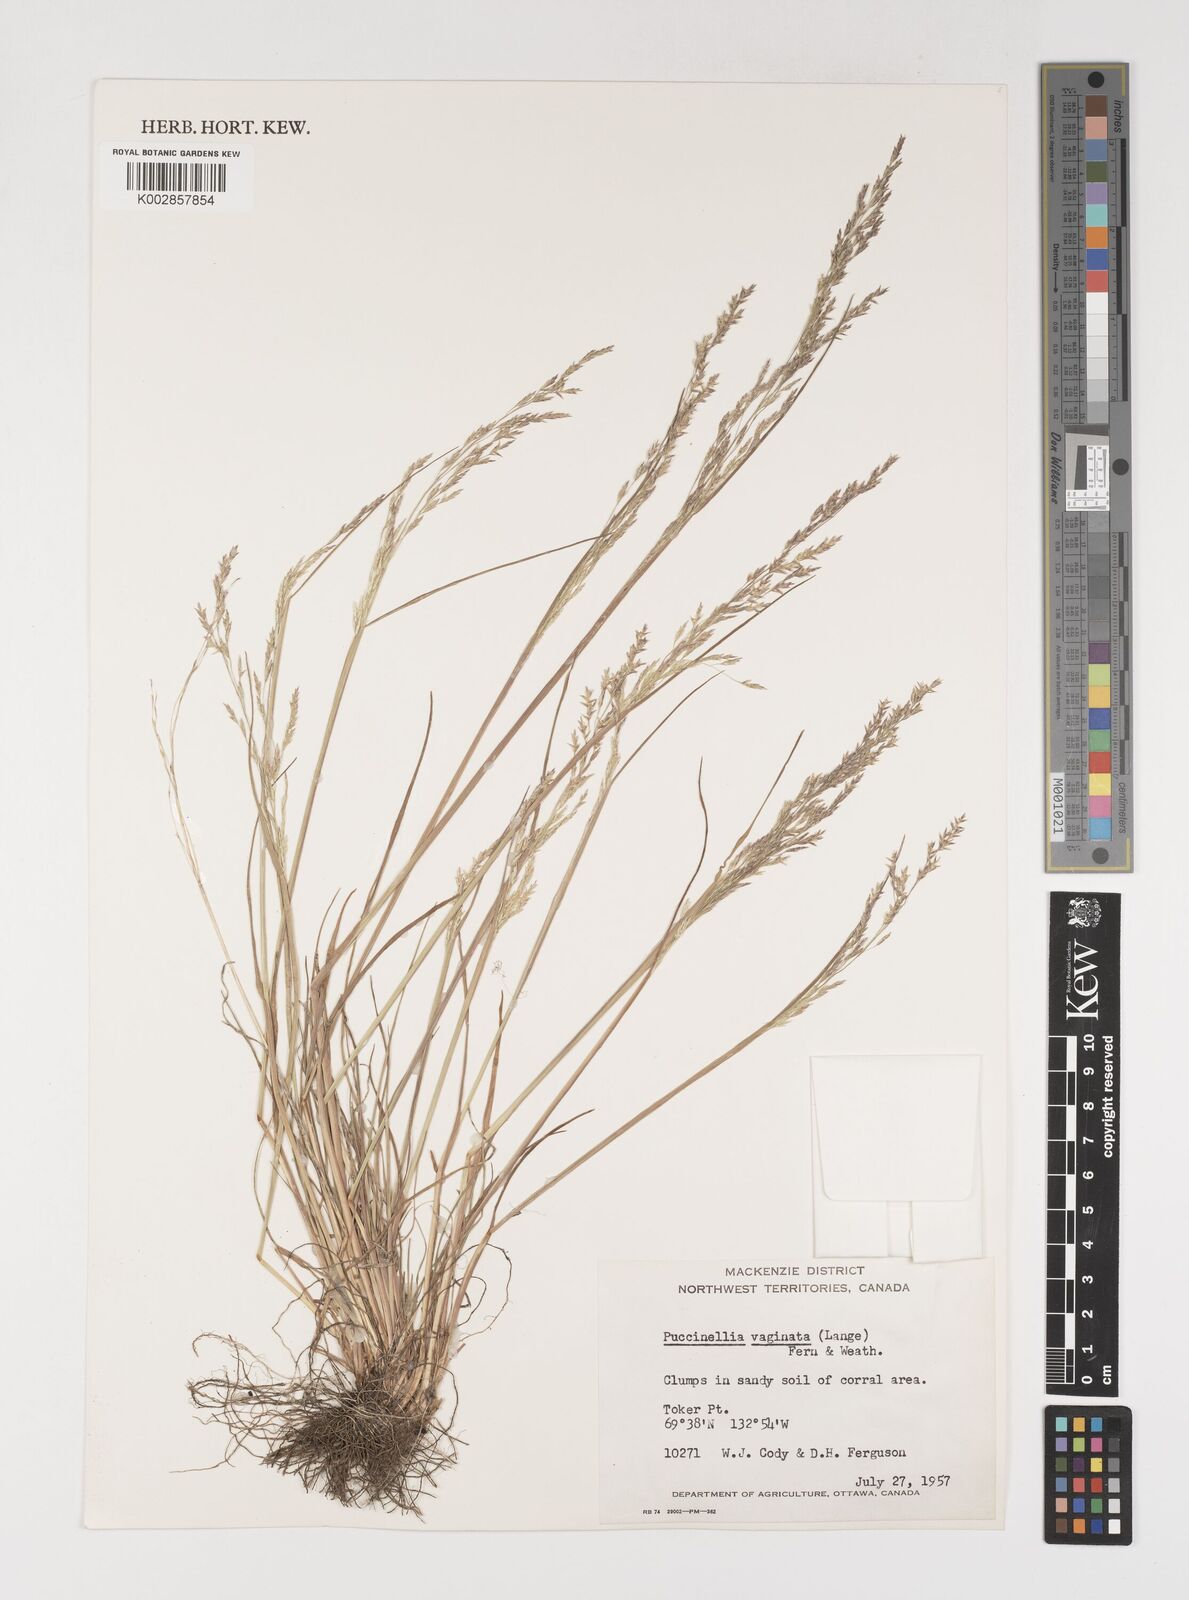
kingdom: Plantae
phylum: Tracheophyta
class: Liliopsida
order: Poales
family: Poaceae
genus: Puccinellia
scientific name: Puccinellia vaginata
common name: Arctic tussock alkaligrass
